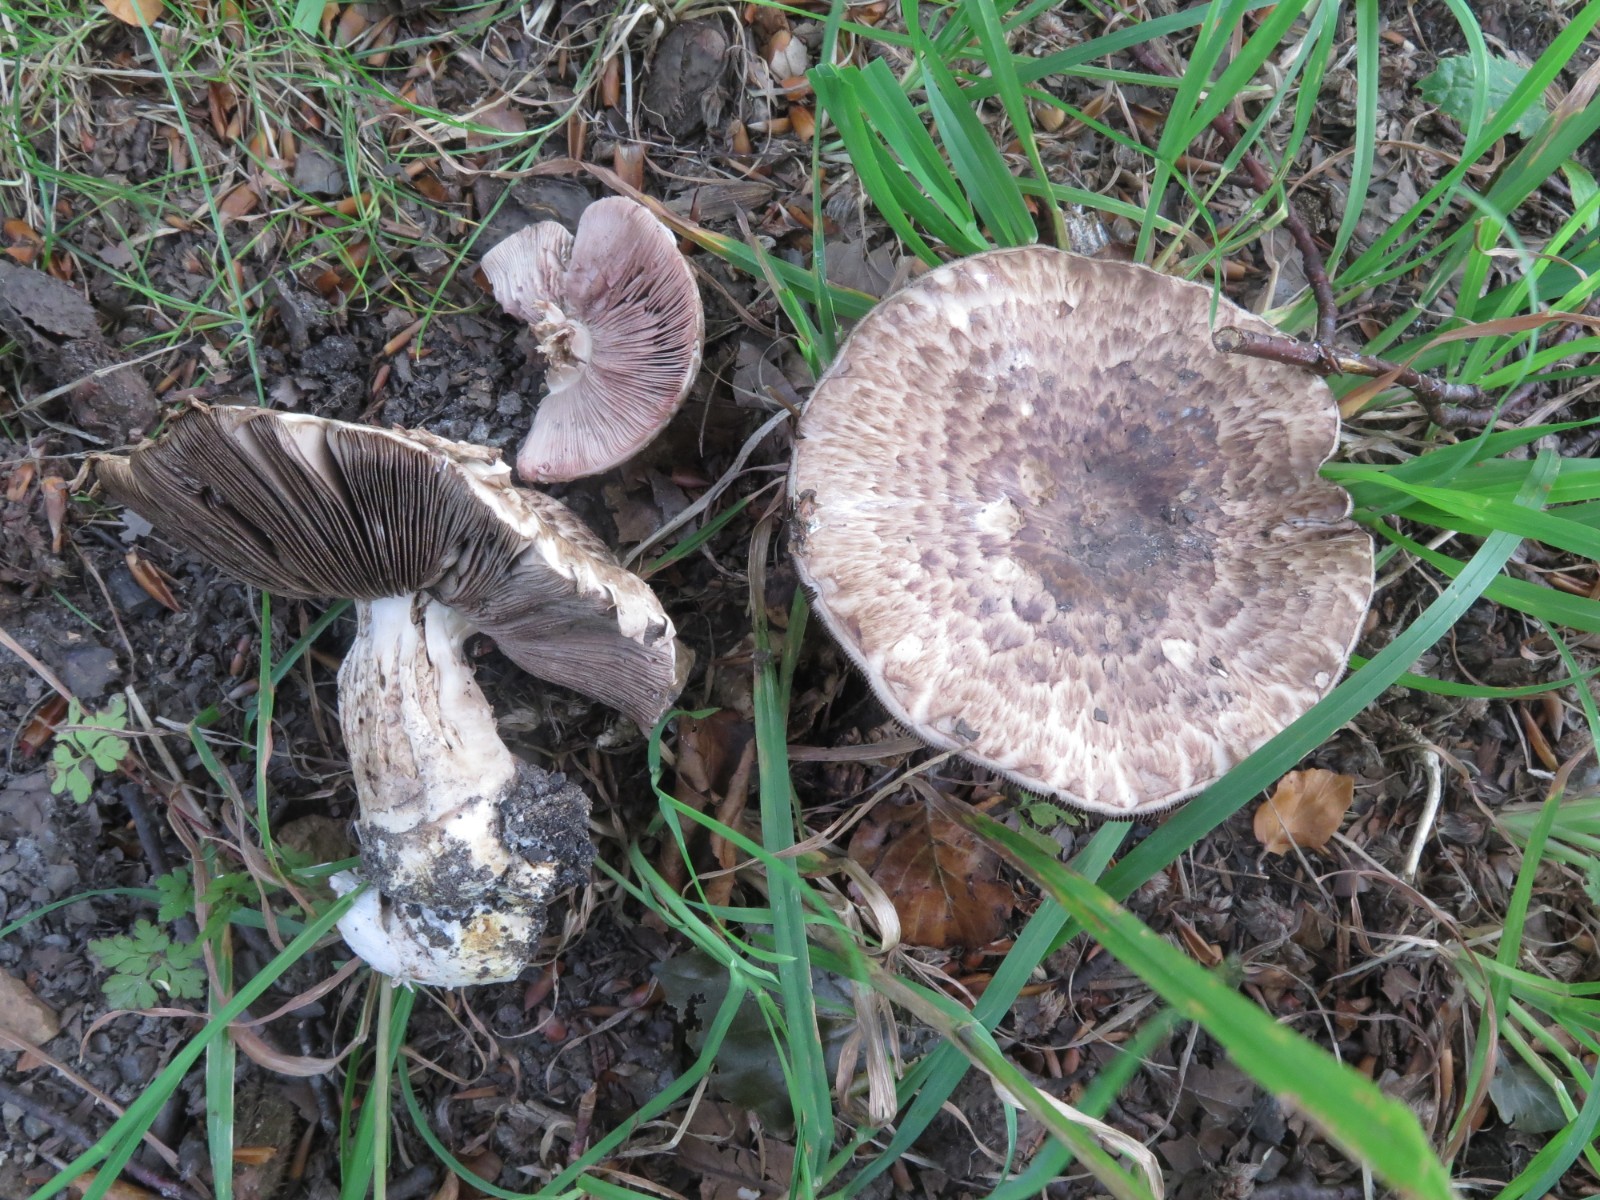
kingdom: Fungi
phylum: Basidiomycota
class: Agaricomycetes
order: Agaricales
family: Agaricaceae
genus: Agaricus
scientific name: Agaricus impudicus
